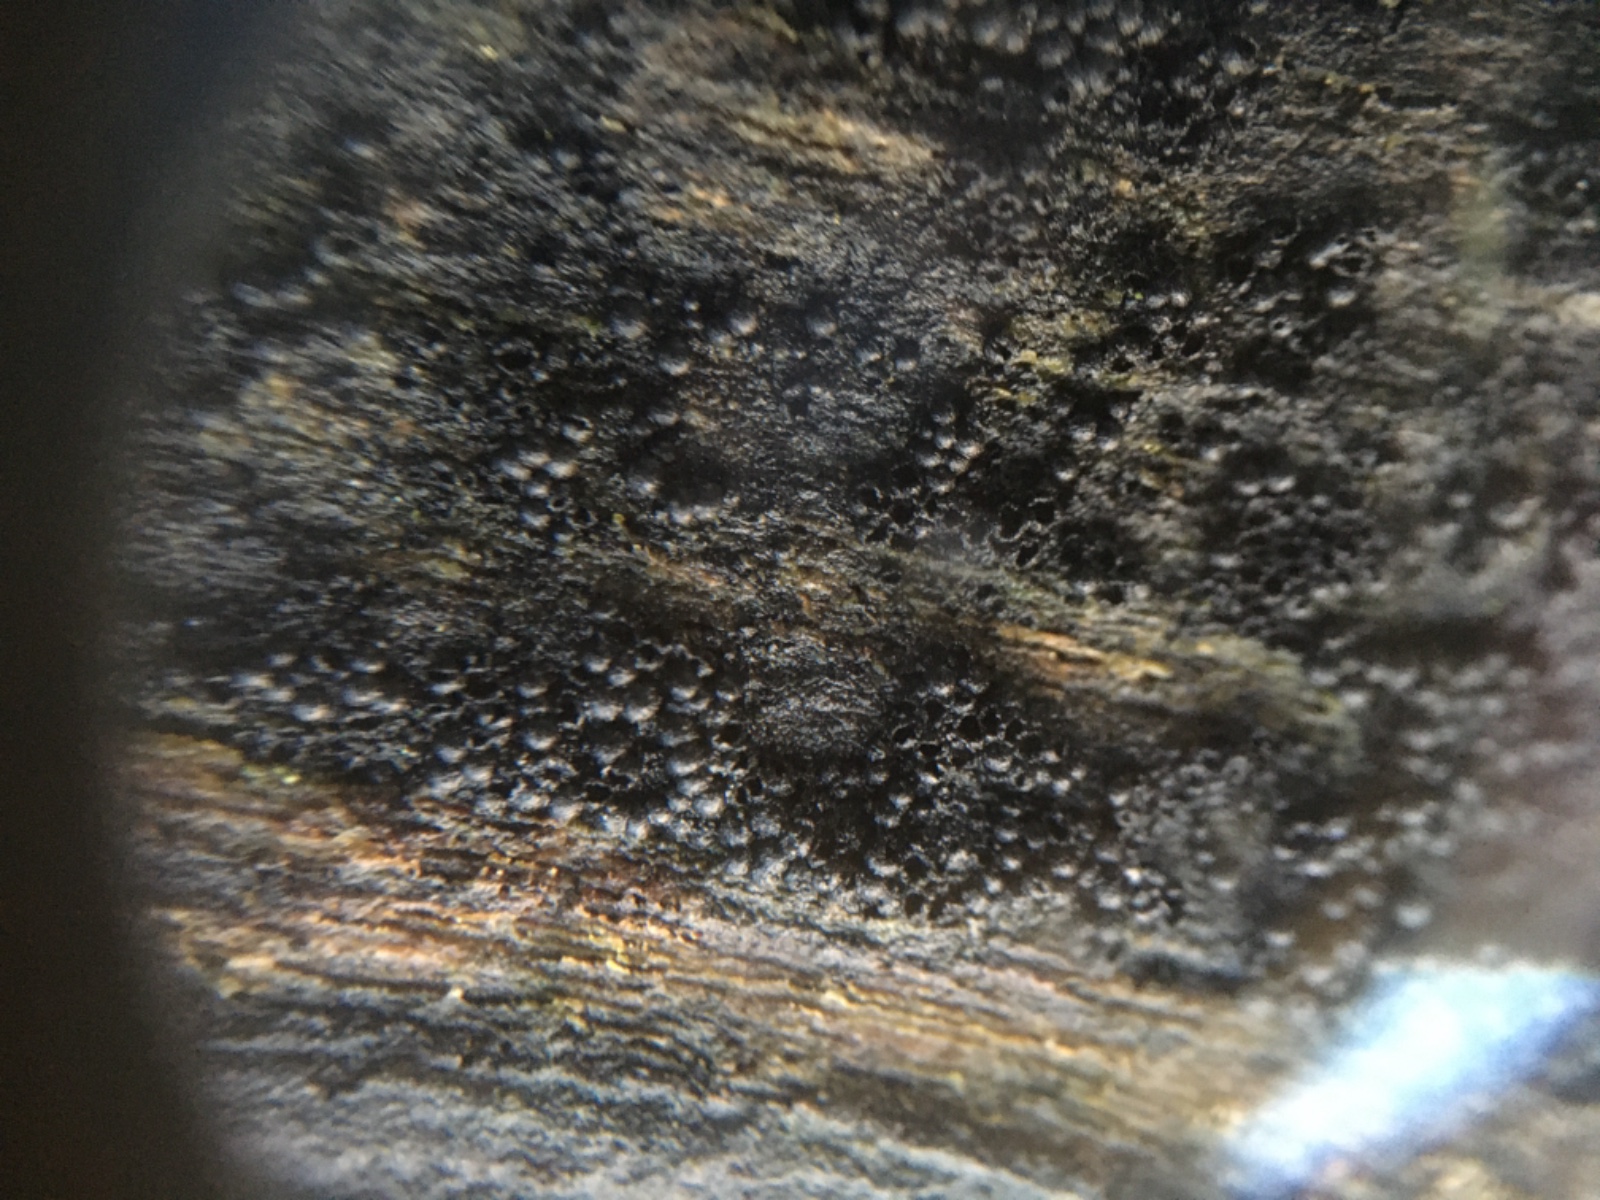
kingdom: Fungi
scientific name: Fungi
